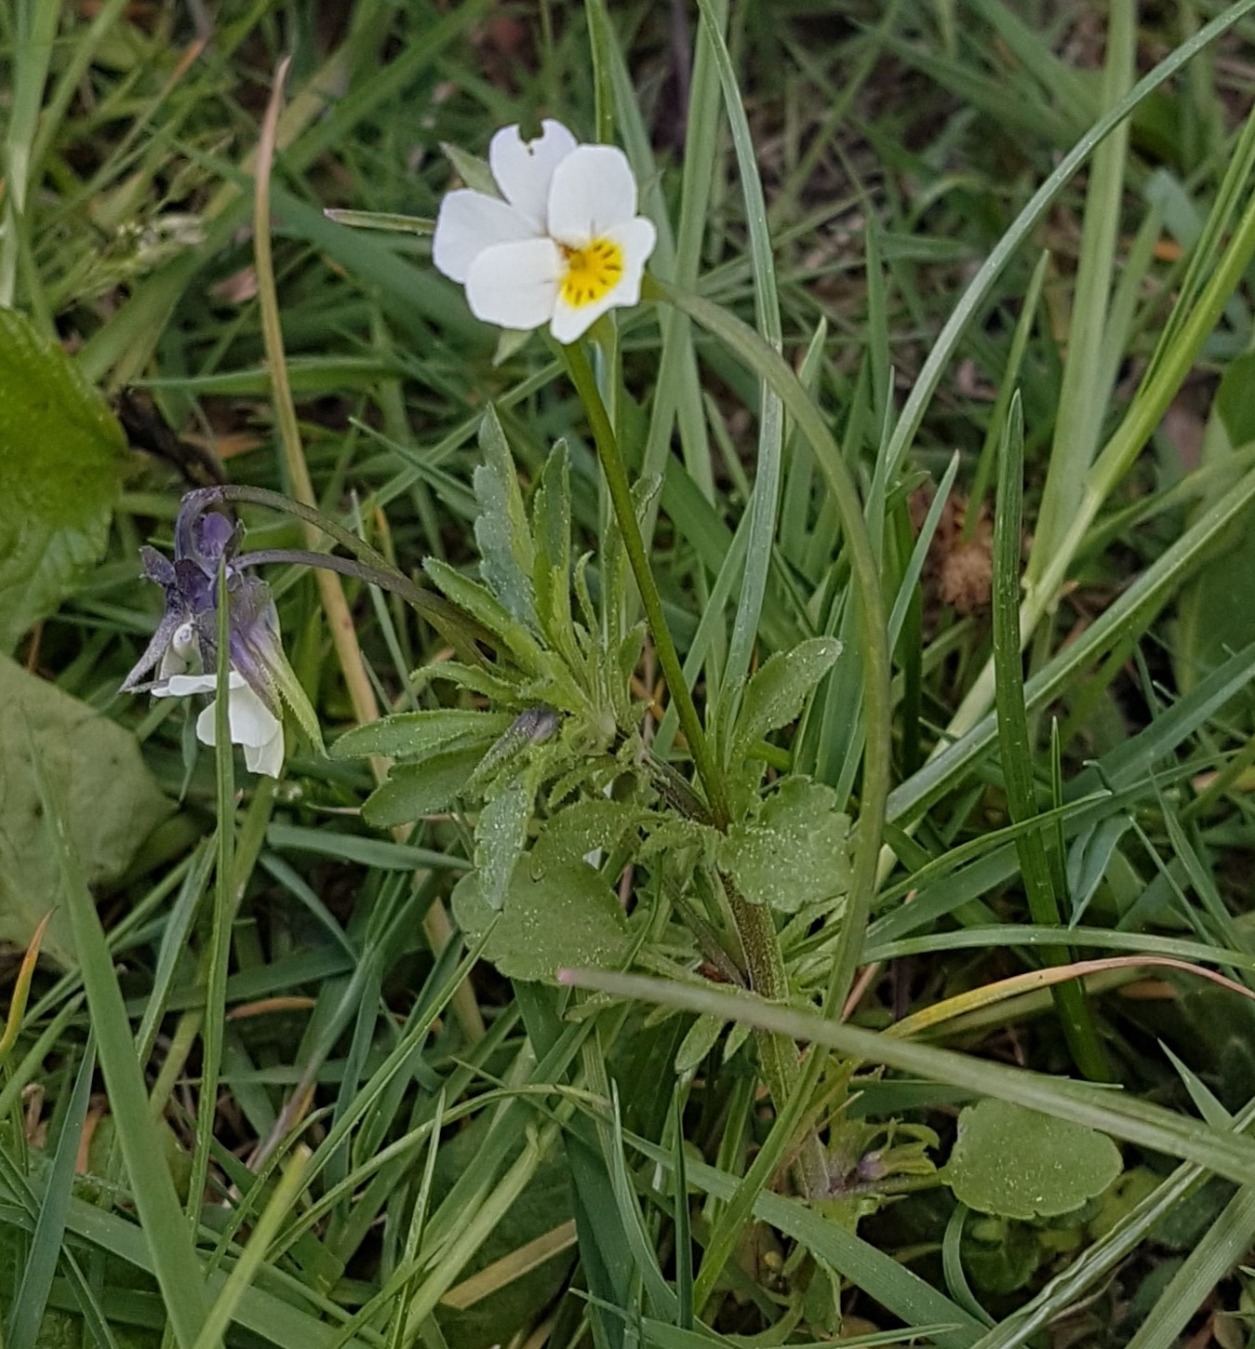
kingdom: Plantae
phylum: Tracheophyta
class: Magnoliopsida
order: Malpighiales
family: Violaceae
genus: Viola
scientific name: Viola arvensis
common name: Ager-stedmoderblomst
